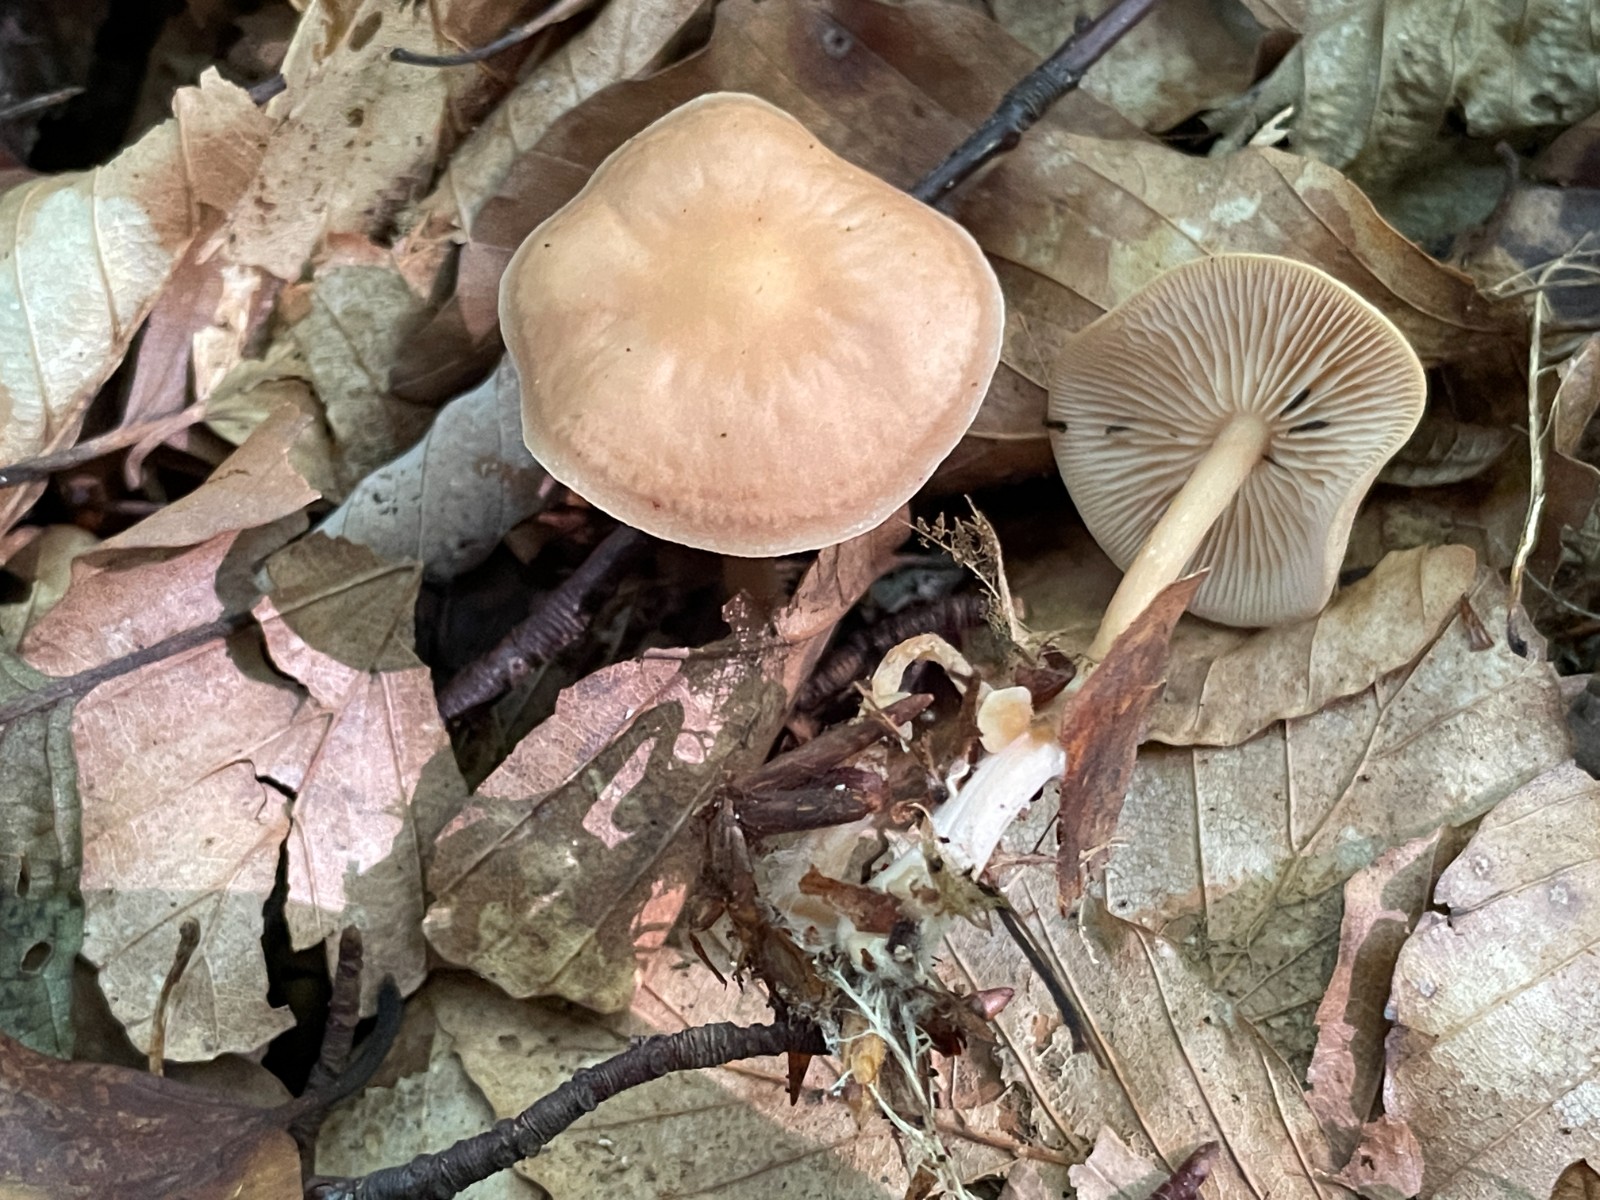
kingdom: Fungi
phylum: Basidiomycota
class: Agaricomycetes
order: Agaricales
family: Omphalotaceae
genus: Gymnopus
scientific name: Gymnopus dryophilus
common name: løv-fladhat
